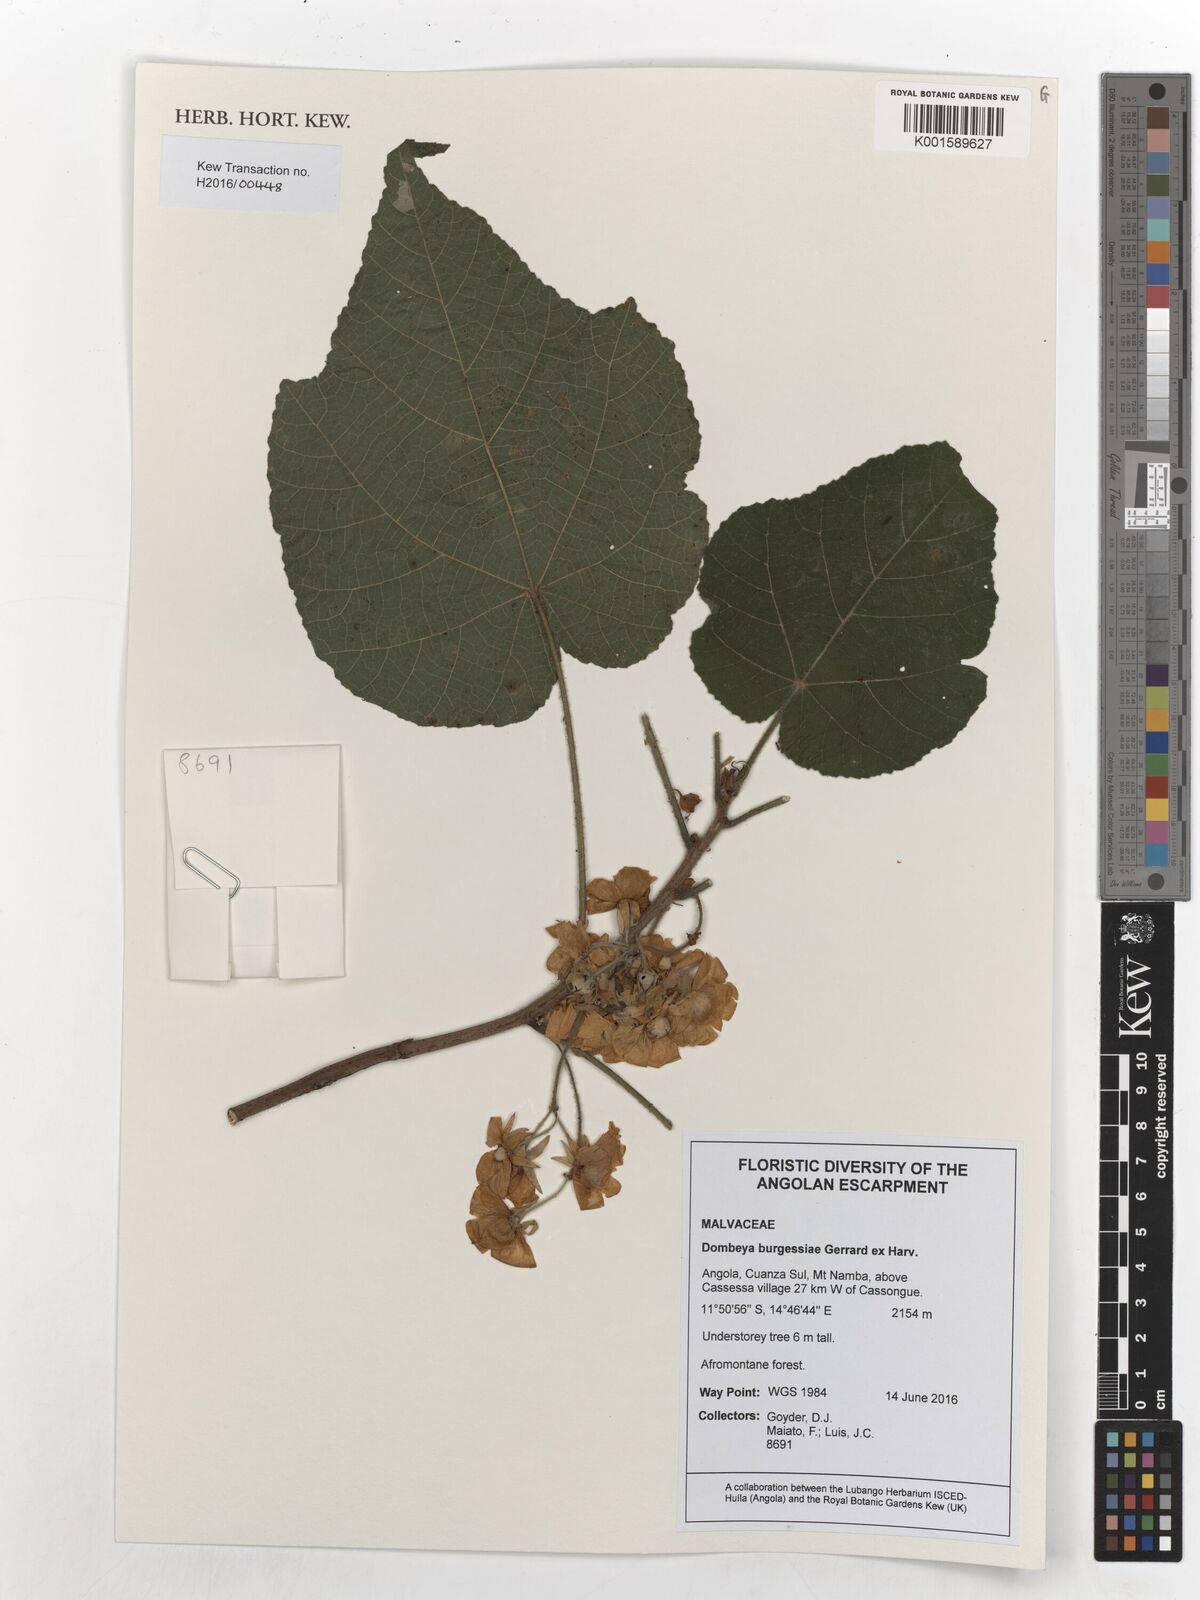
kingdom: Plantae
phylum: Tracheophyta
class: Magnoliopsida
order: Malvales
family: Malvaceae
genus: Dombeya
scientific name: Dombeya burgessiae
